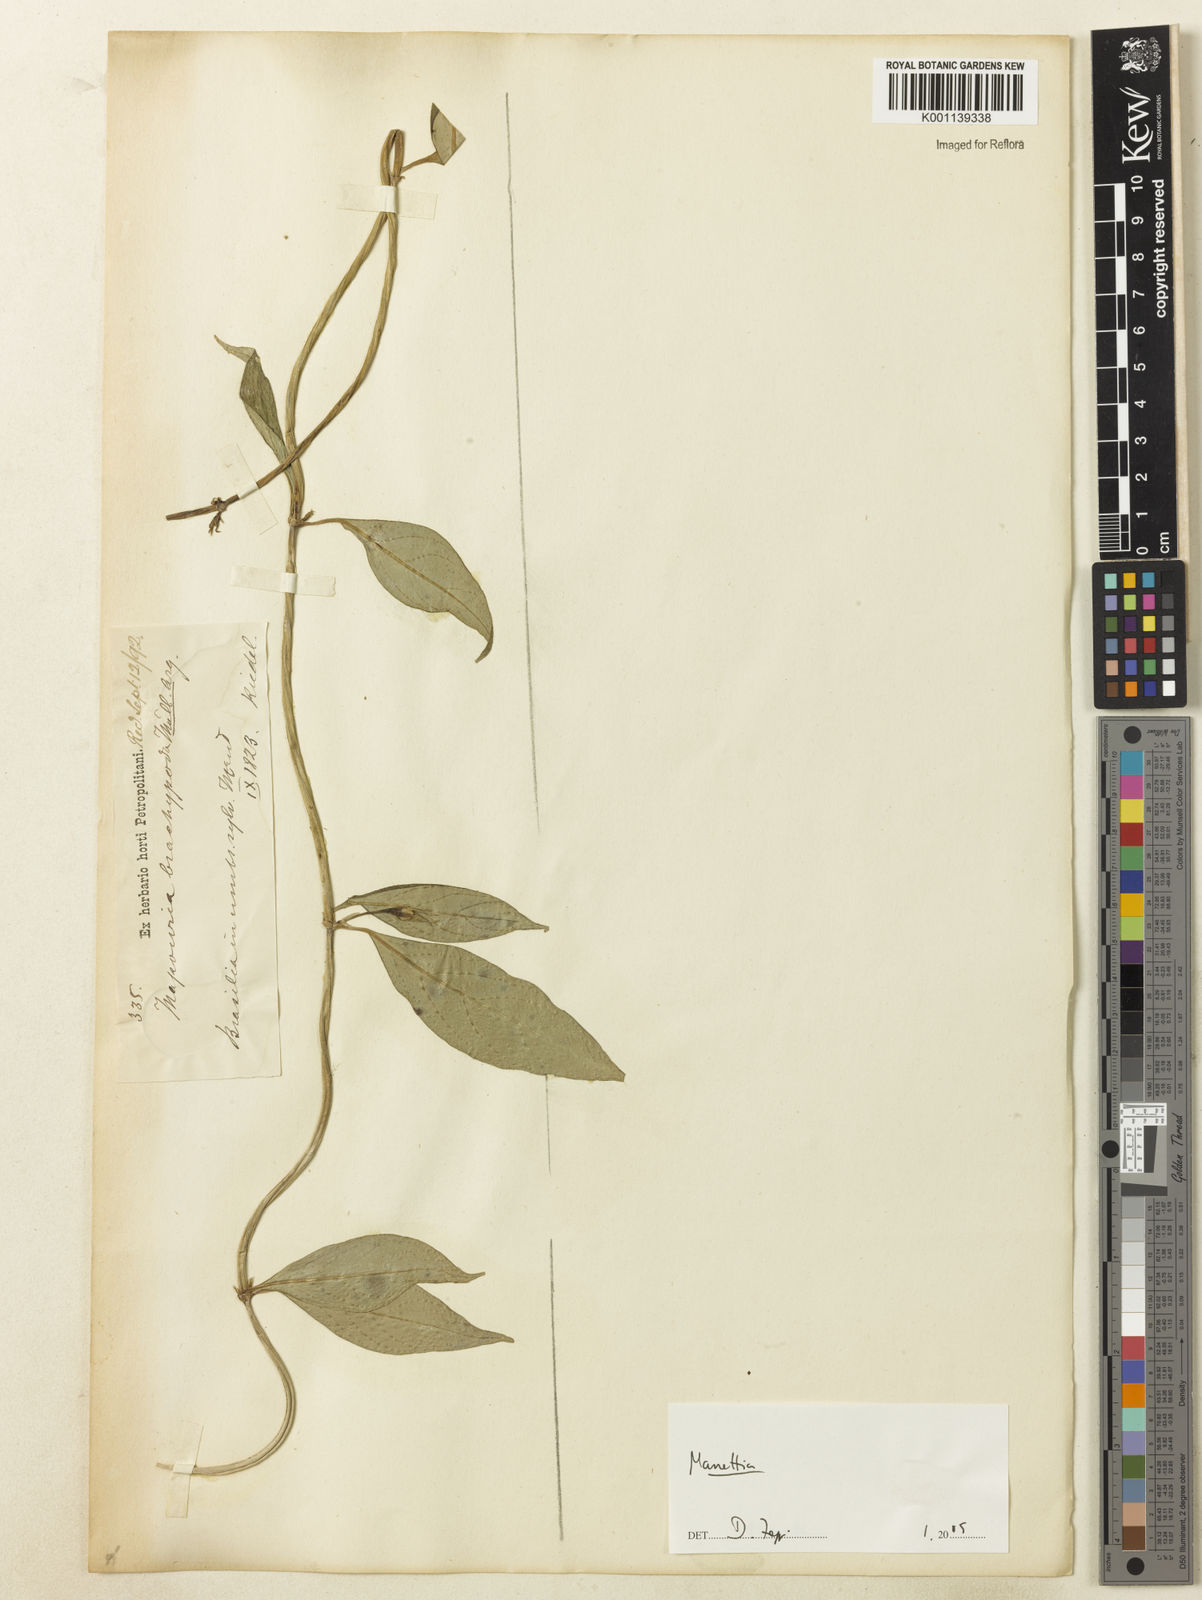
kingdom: Plantae
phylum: Tracheophyta
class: Magnoliopsida
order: Gentianales
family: Rubiaceae
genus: Manettia
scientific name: Manettia
